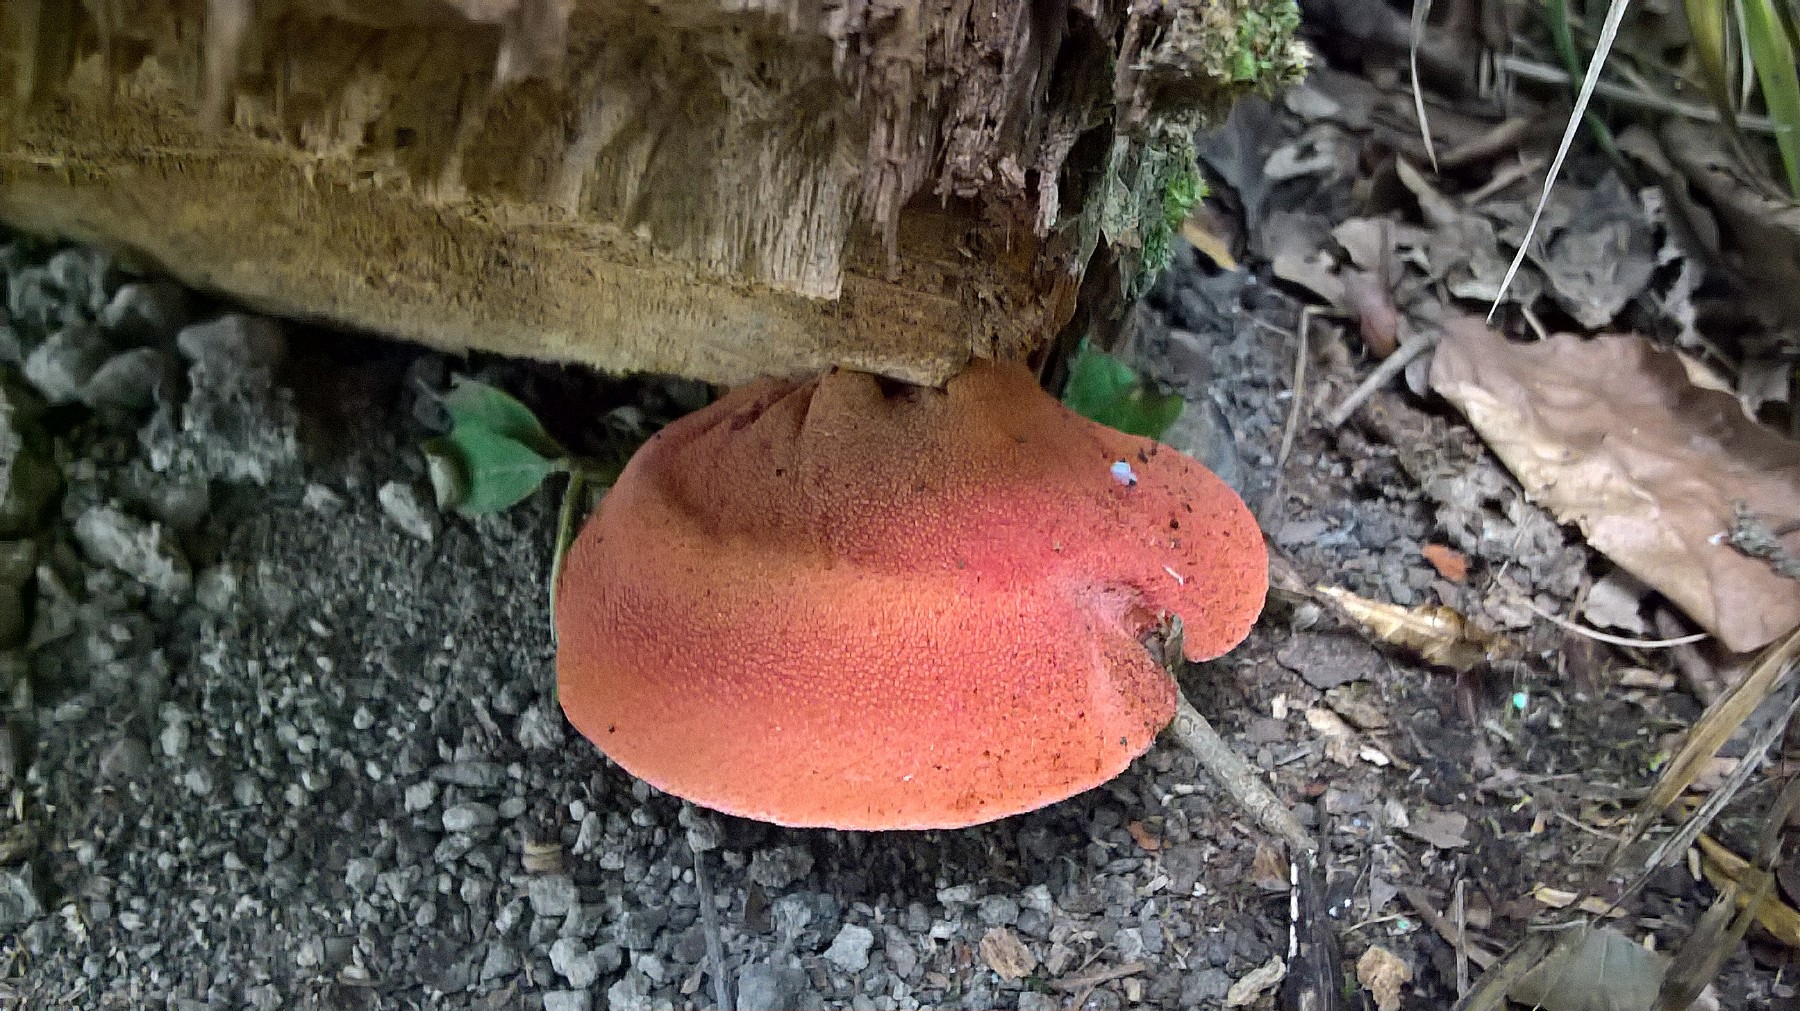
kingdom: Fungi
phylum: Basidiomycota
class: Agaricomycetes
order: Agaricales
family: Fistulinaceae
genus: Fistulina
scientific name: Fistulina hepatica
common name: oksetunge
